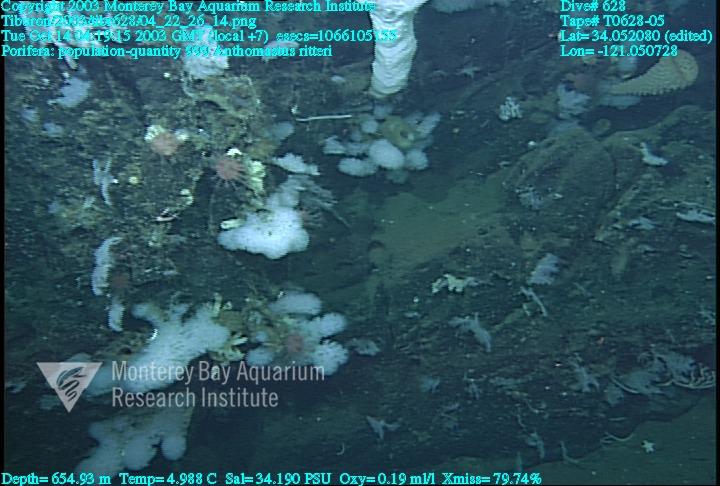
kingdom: Animalia
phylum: Porifera
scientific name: Porifera
